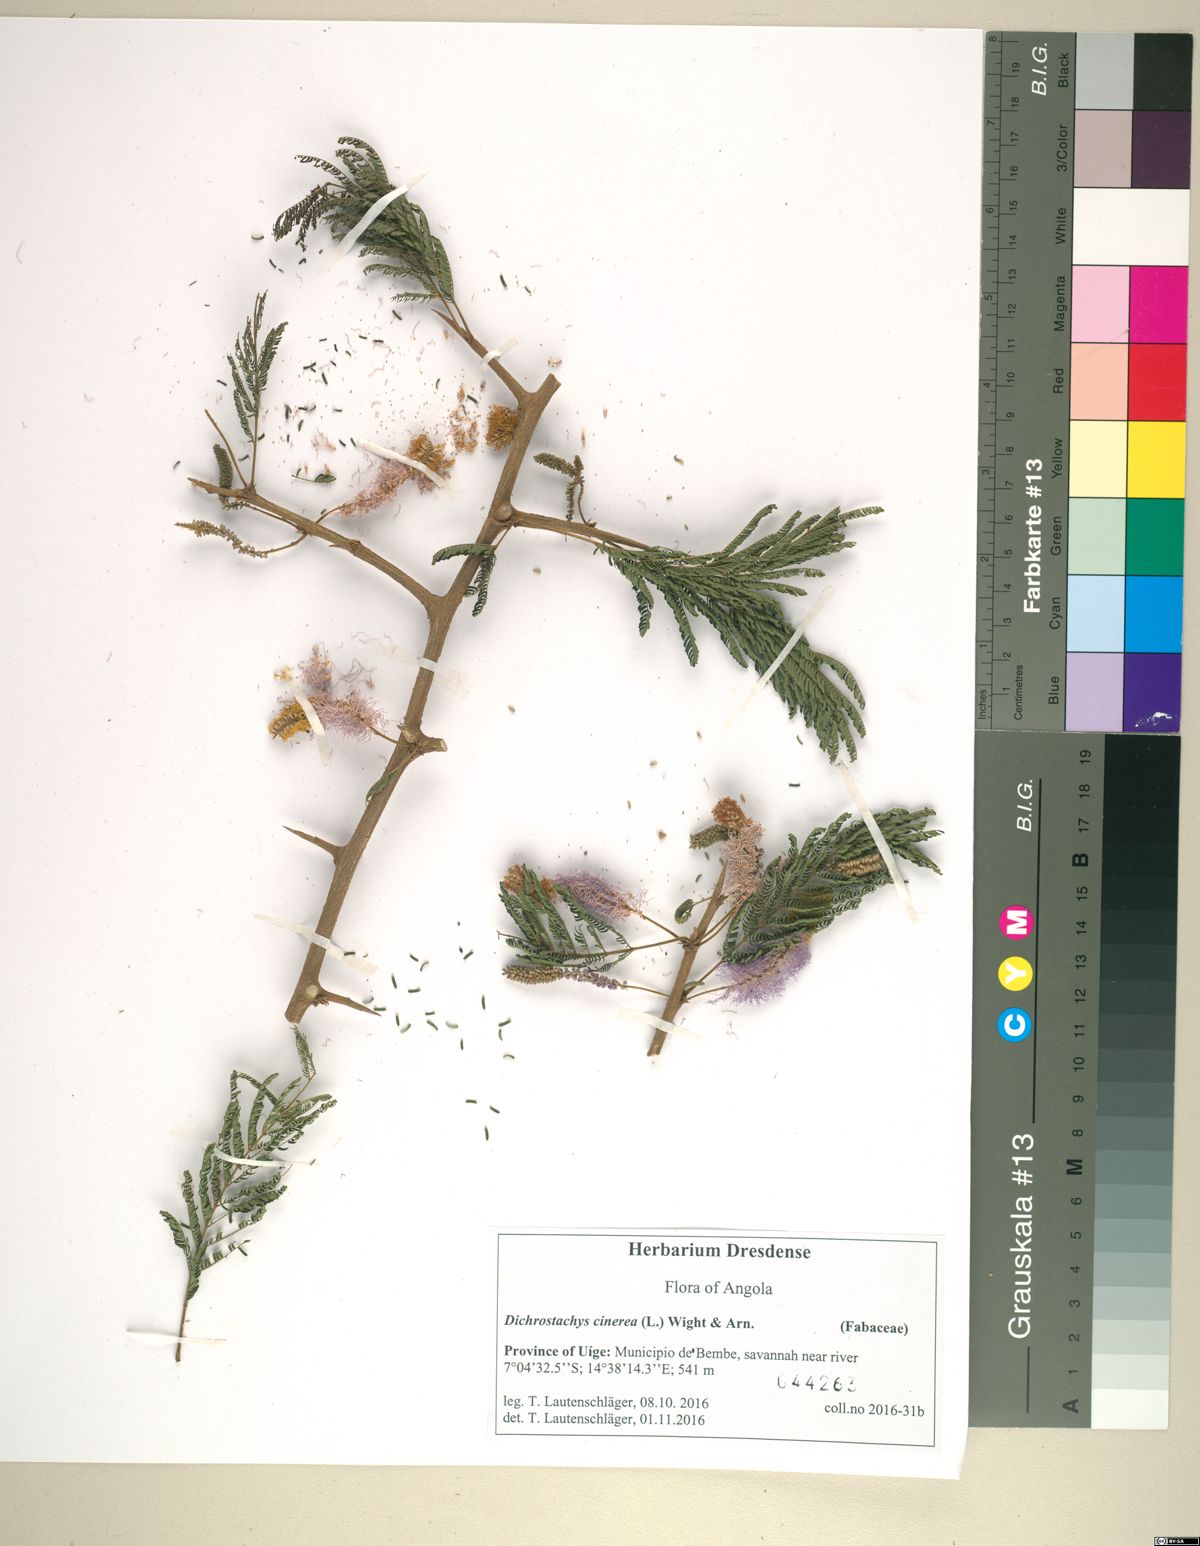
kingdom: Plantae
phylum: Tracheophyta
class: Magnoliopsida
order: Fabales
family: Fabaceae
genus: Dichrostachys
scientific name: Dichrostachys cinerea
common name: Sicklebush
